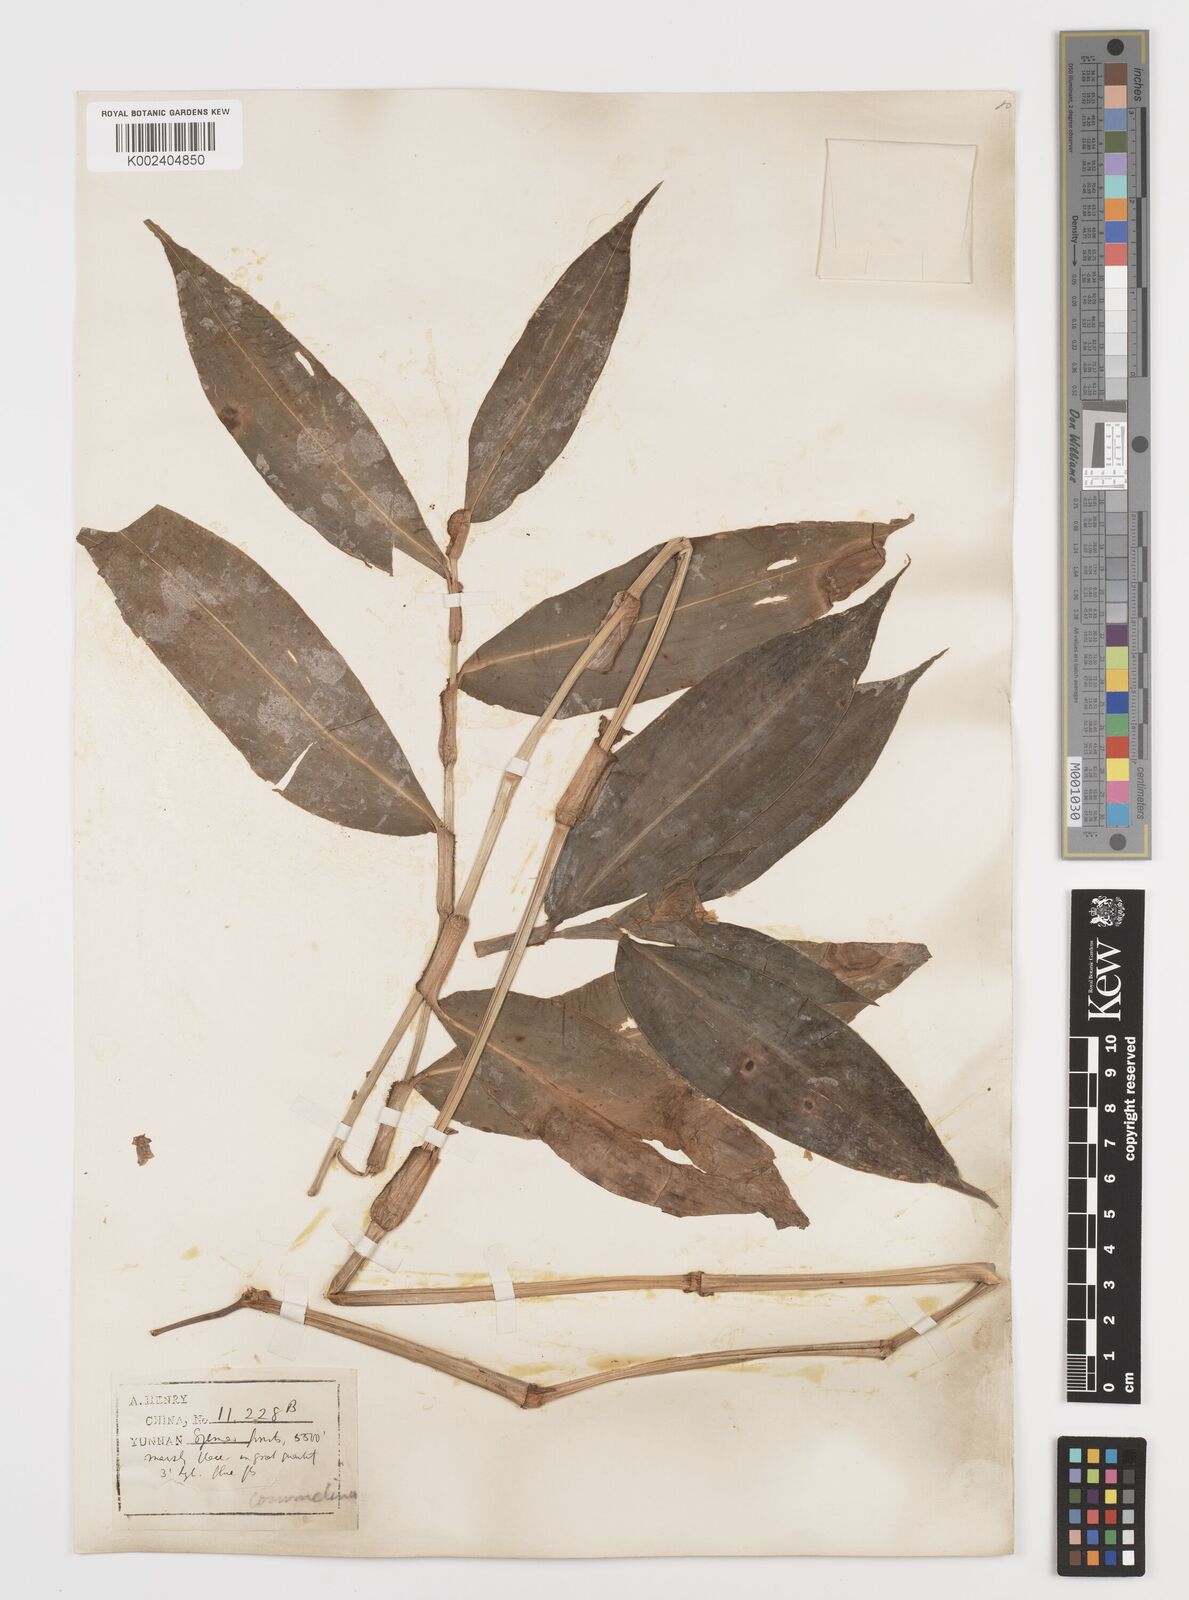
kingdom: Plantae
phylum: Tracheophyta
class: Liliopsida
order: Commelinales
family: Commelinaceae
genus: Commelina
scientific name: Commelina obliqua
